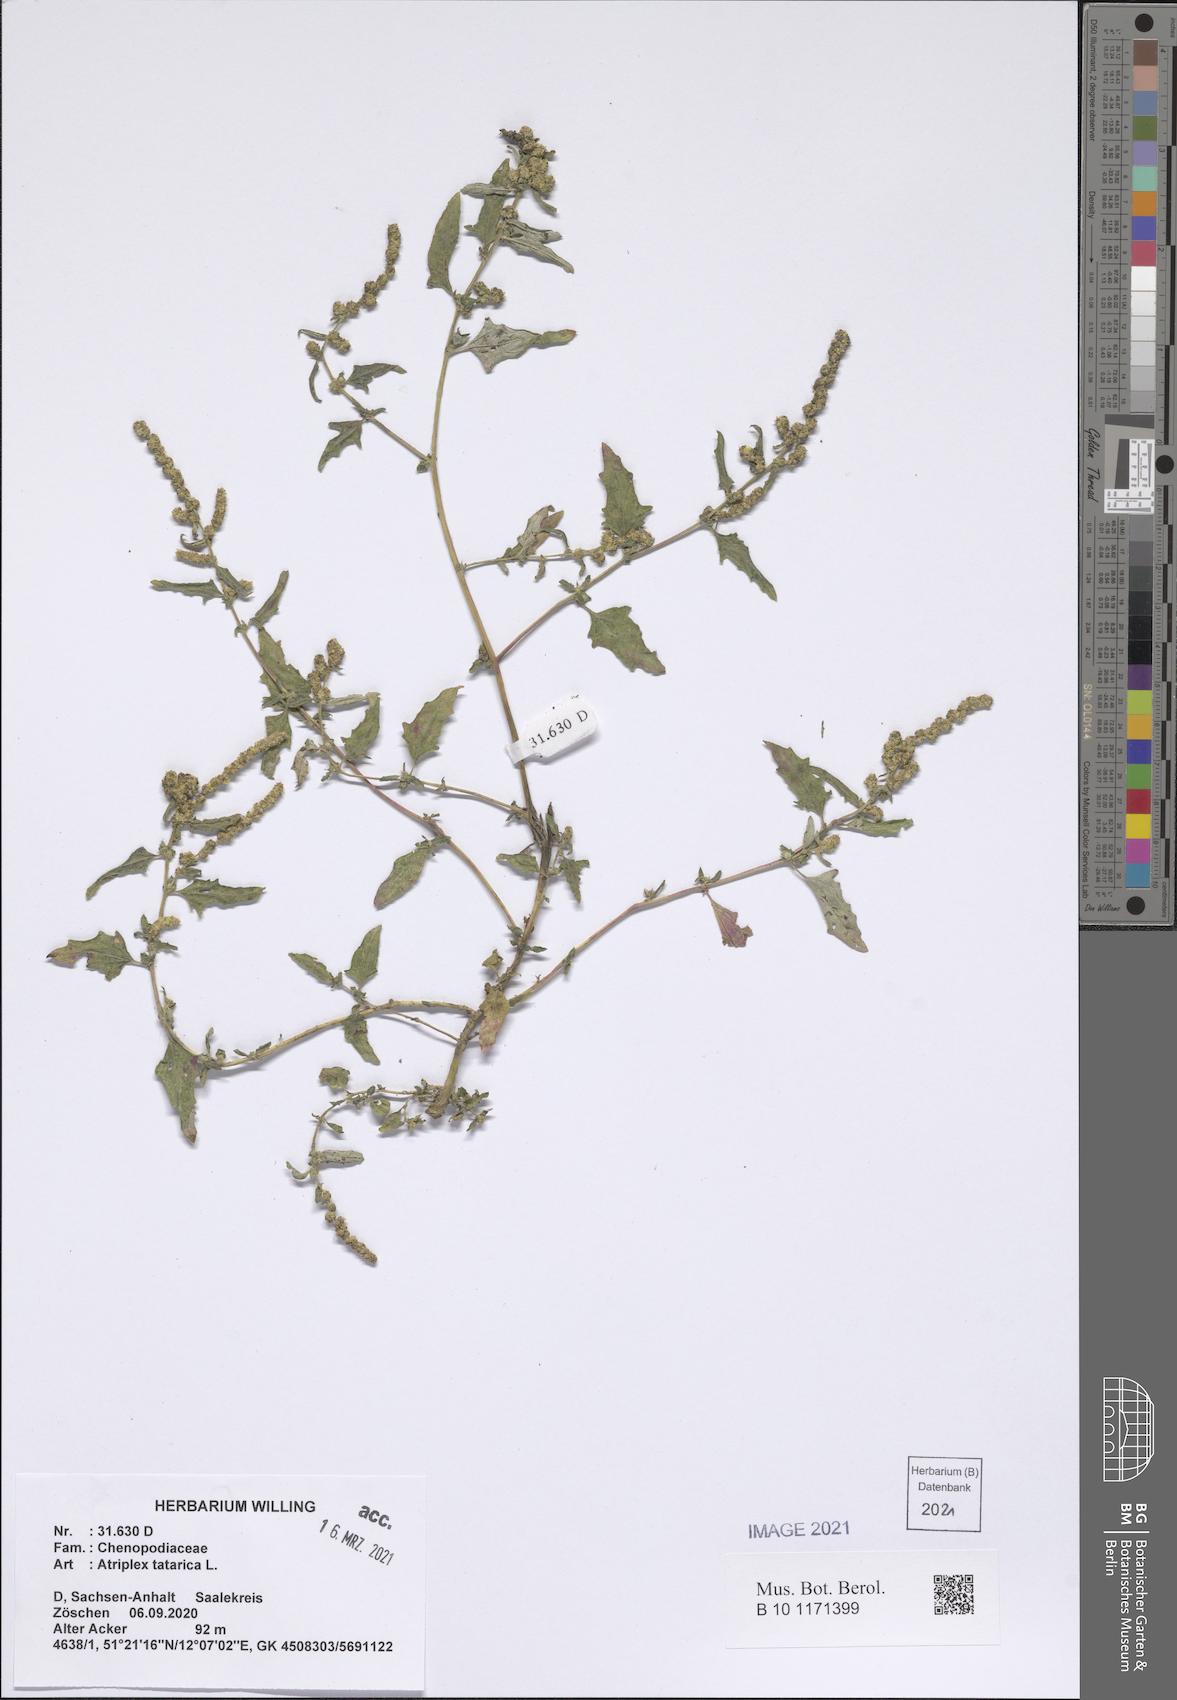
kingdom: Plantae
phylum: Tracheophyta
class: Magnoliopsida
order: Caryophyllales
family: Amaranthaceae
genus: Atriplex
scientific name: Atriplex tatarica
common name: Tatarian orache
